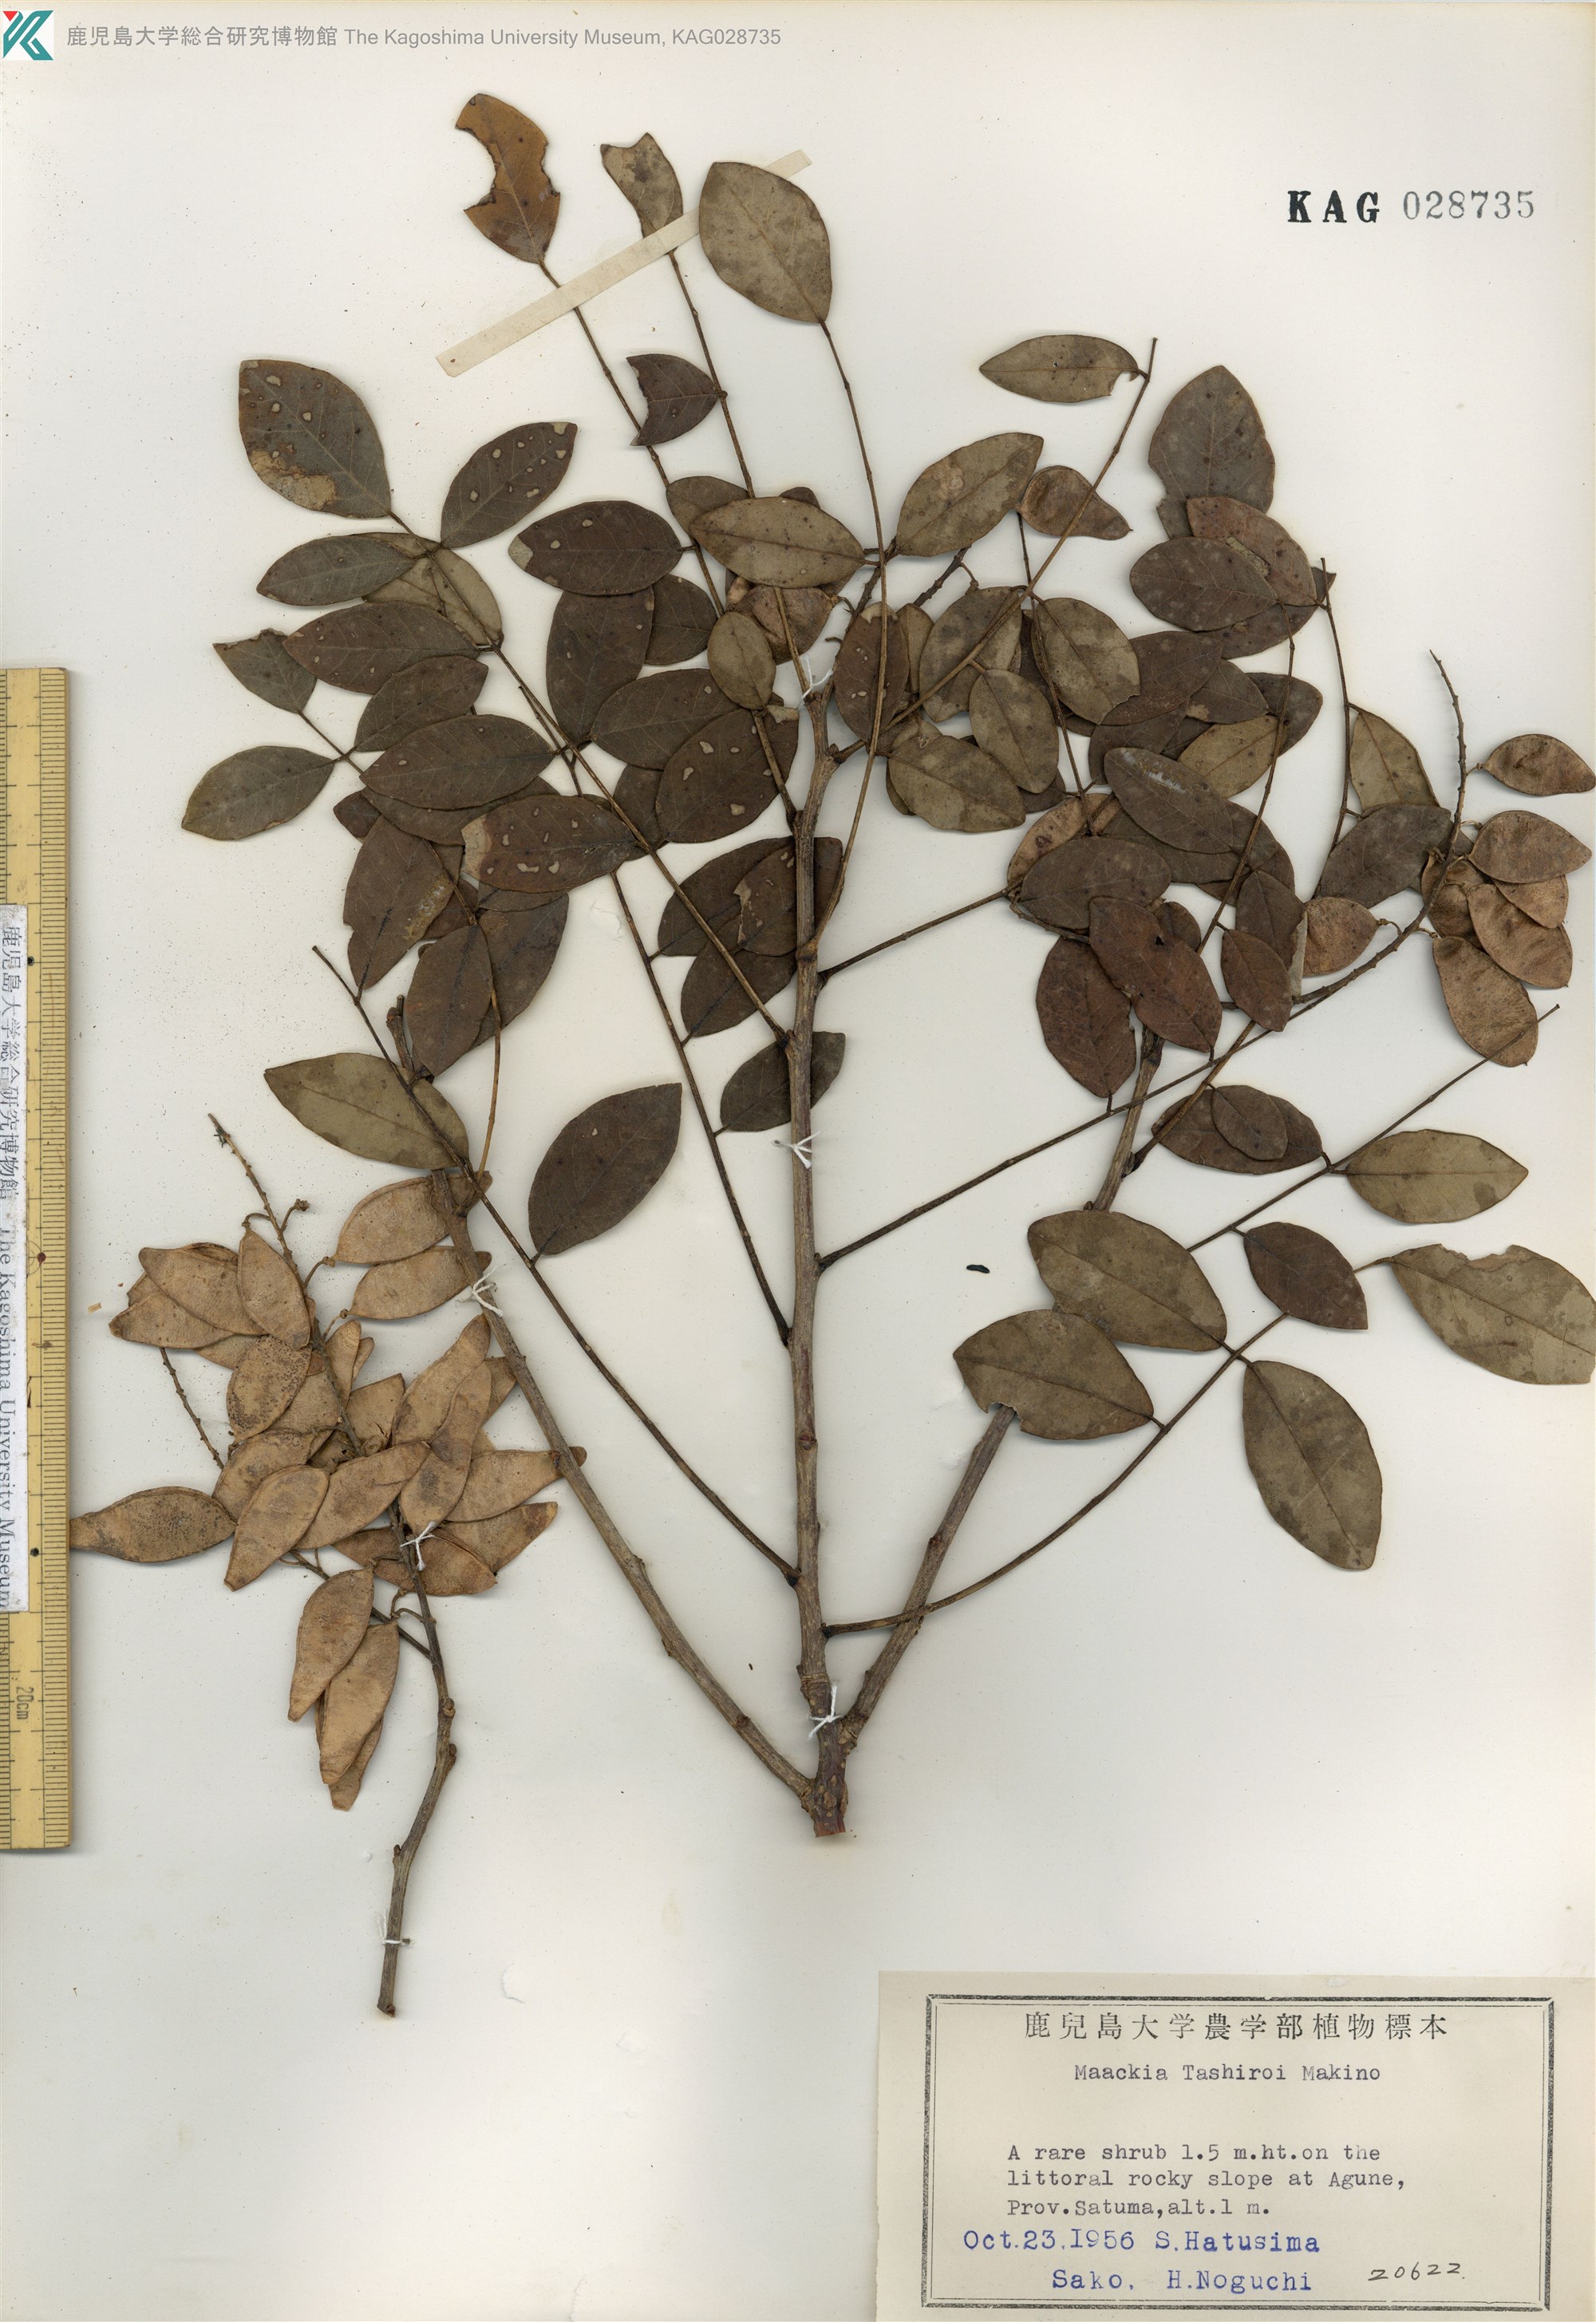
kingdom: Plantae
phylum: Tracheophyta
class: Magnoliopsida
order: Fabales
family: Fabaceae
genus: Maackia
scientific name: Maackia tashiroi
